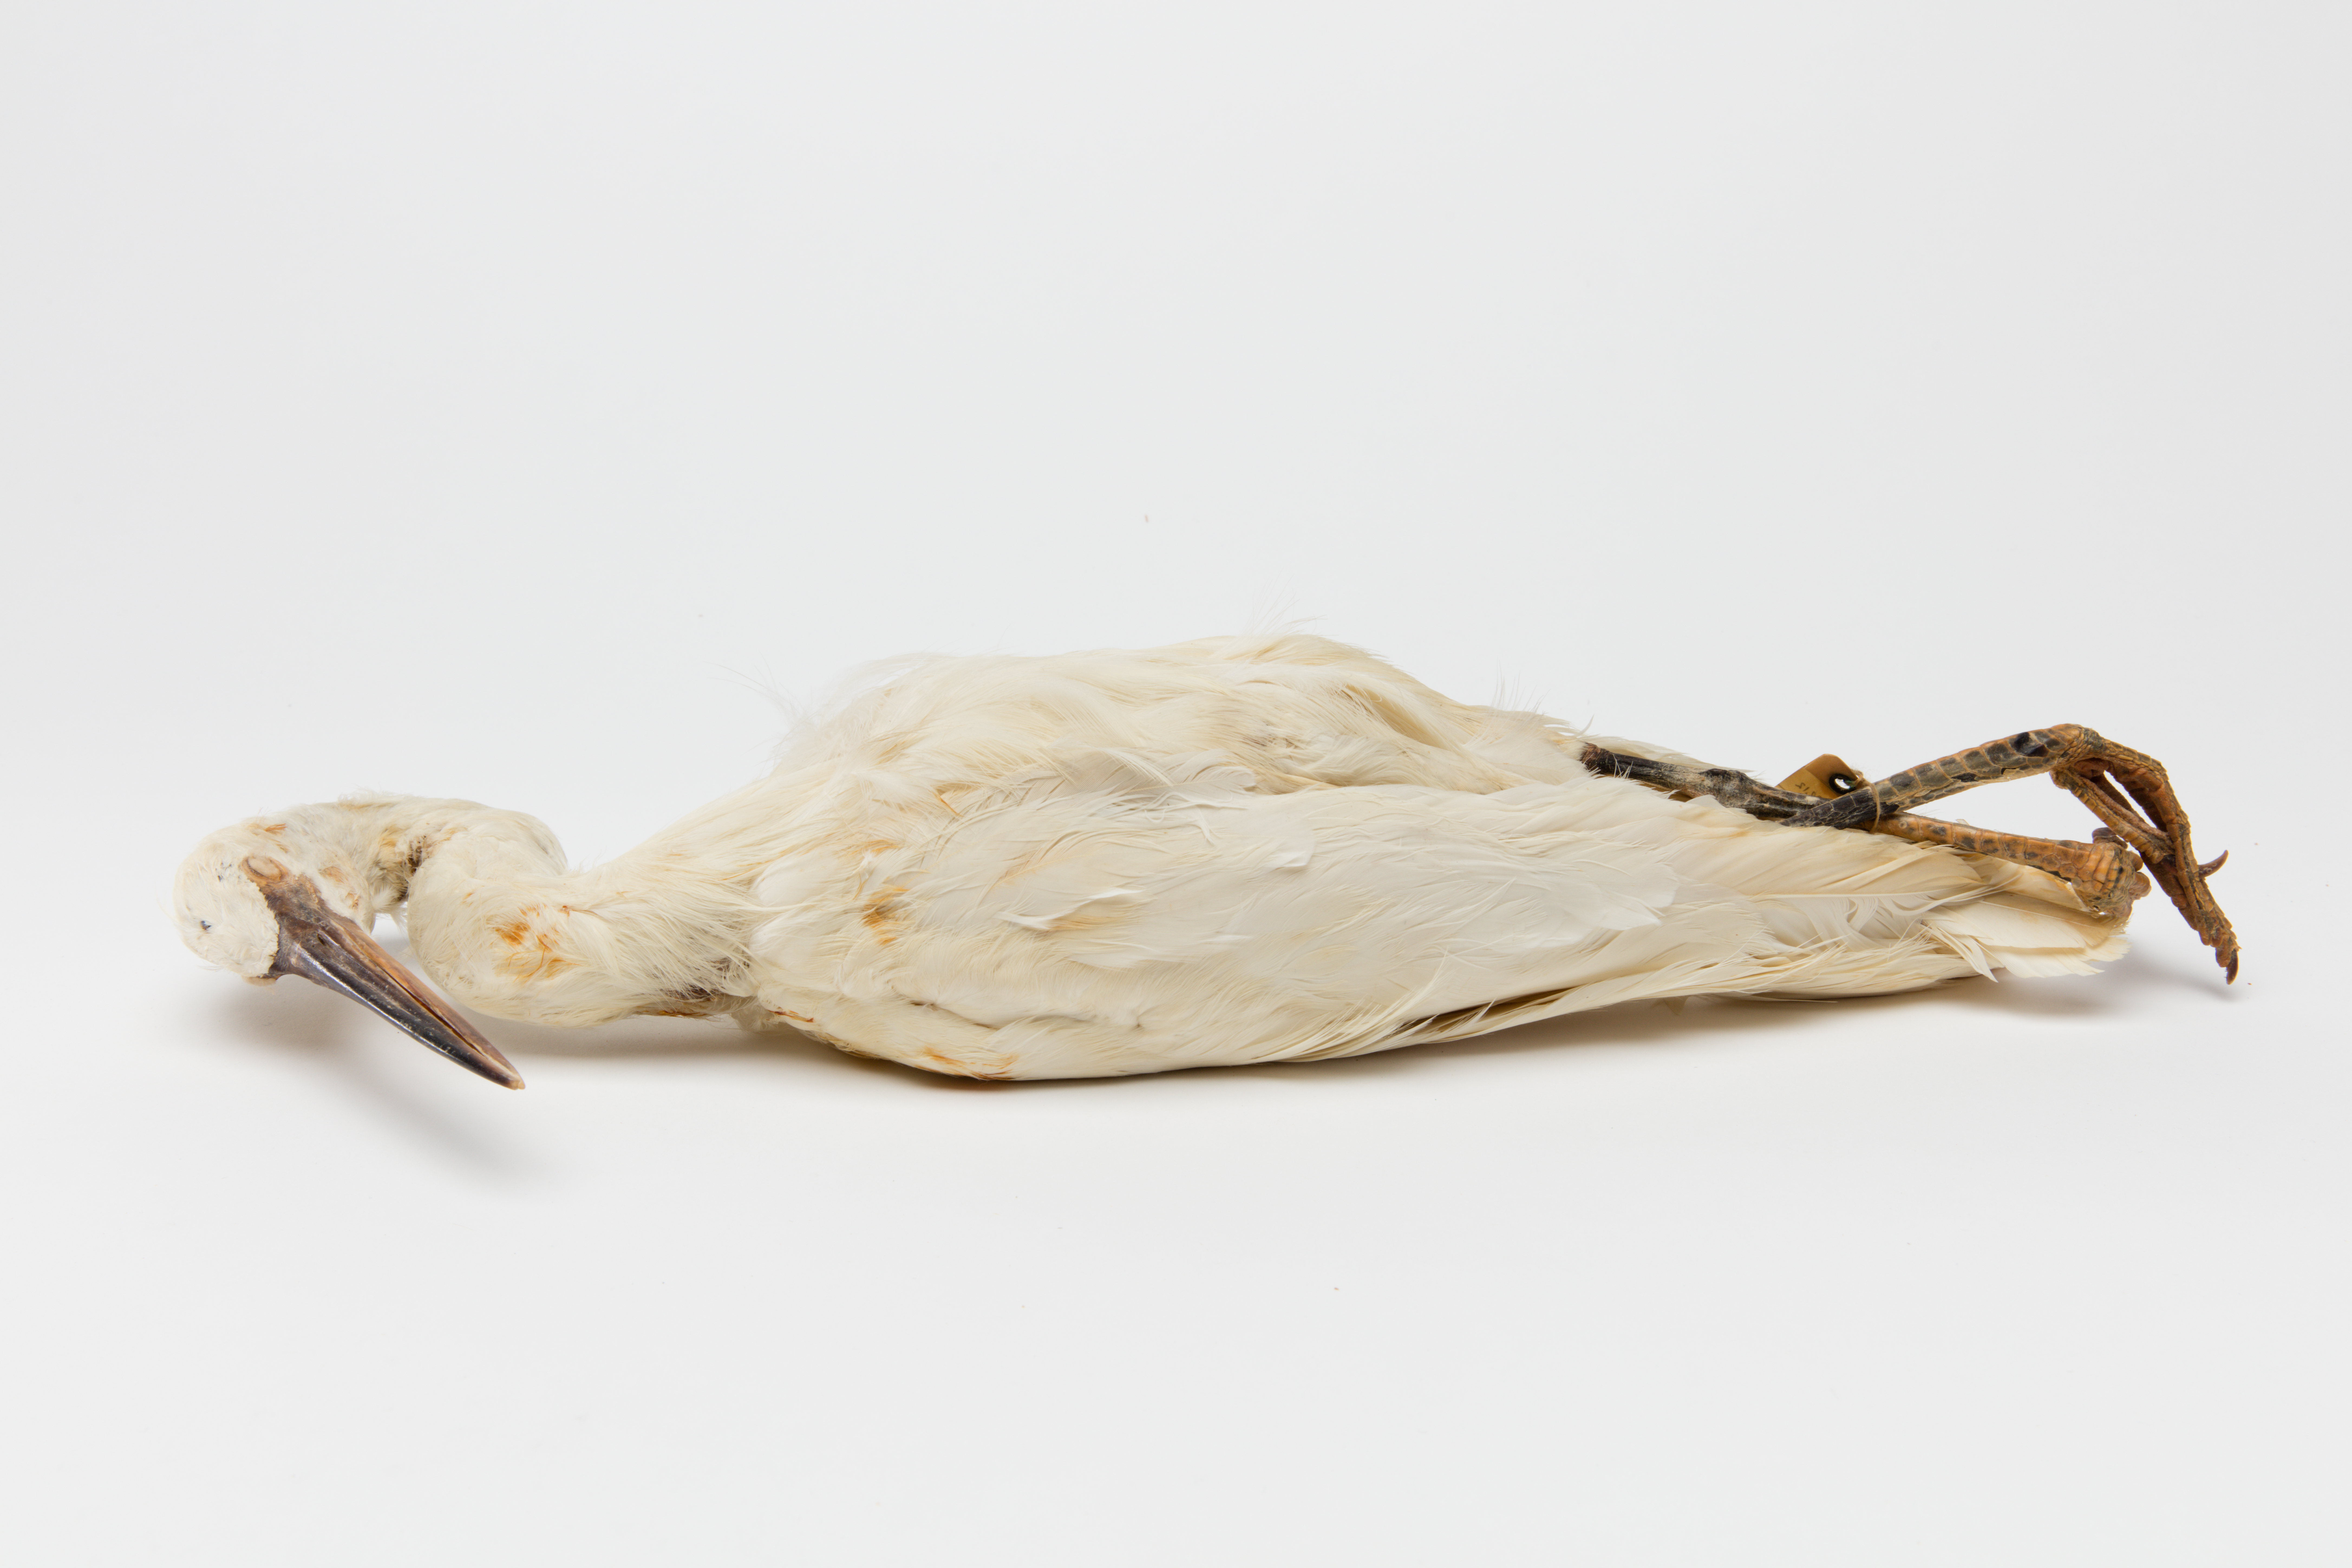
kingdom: Animalia
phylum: Chordata
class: Aves
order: Pelecaniformes
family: Ardeidae
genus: Egretta
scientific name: Egretta sacra
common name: Pacific reef heron
